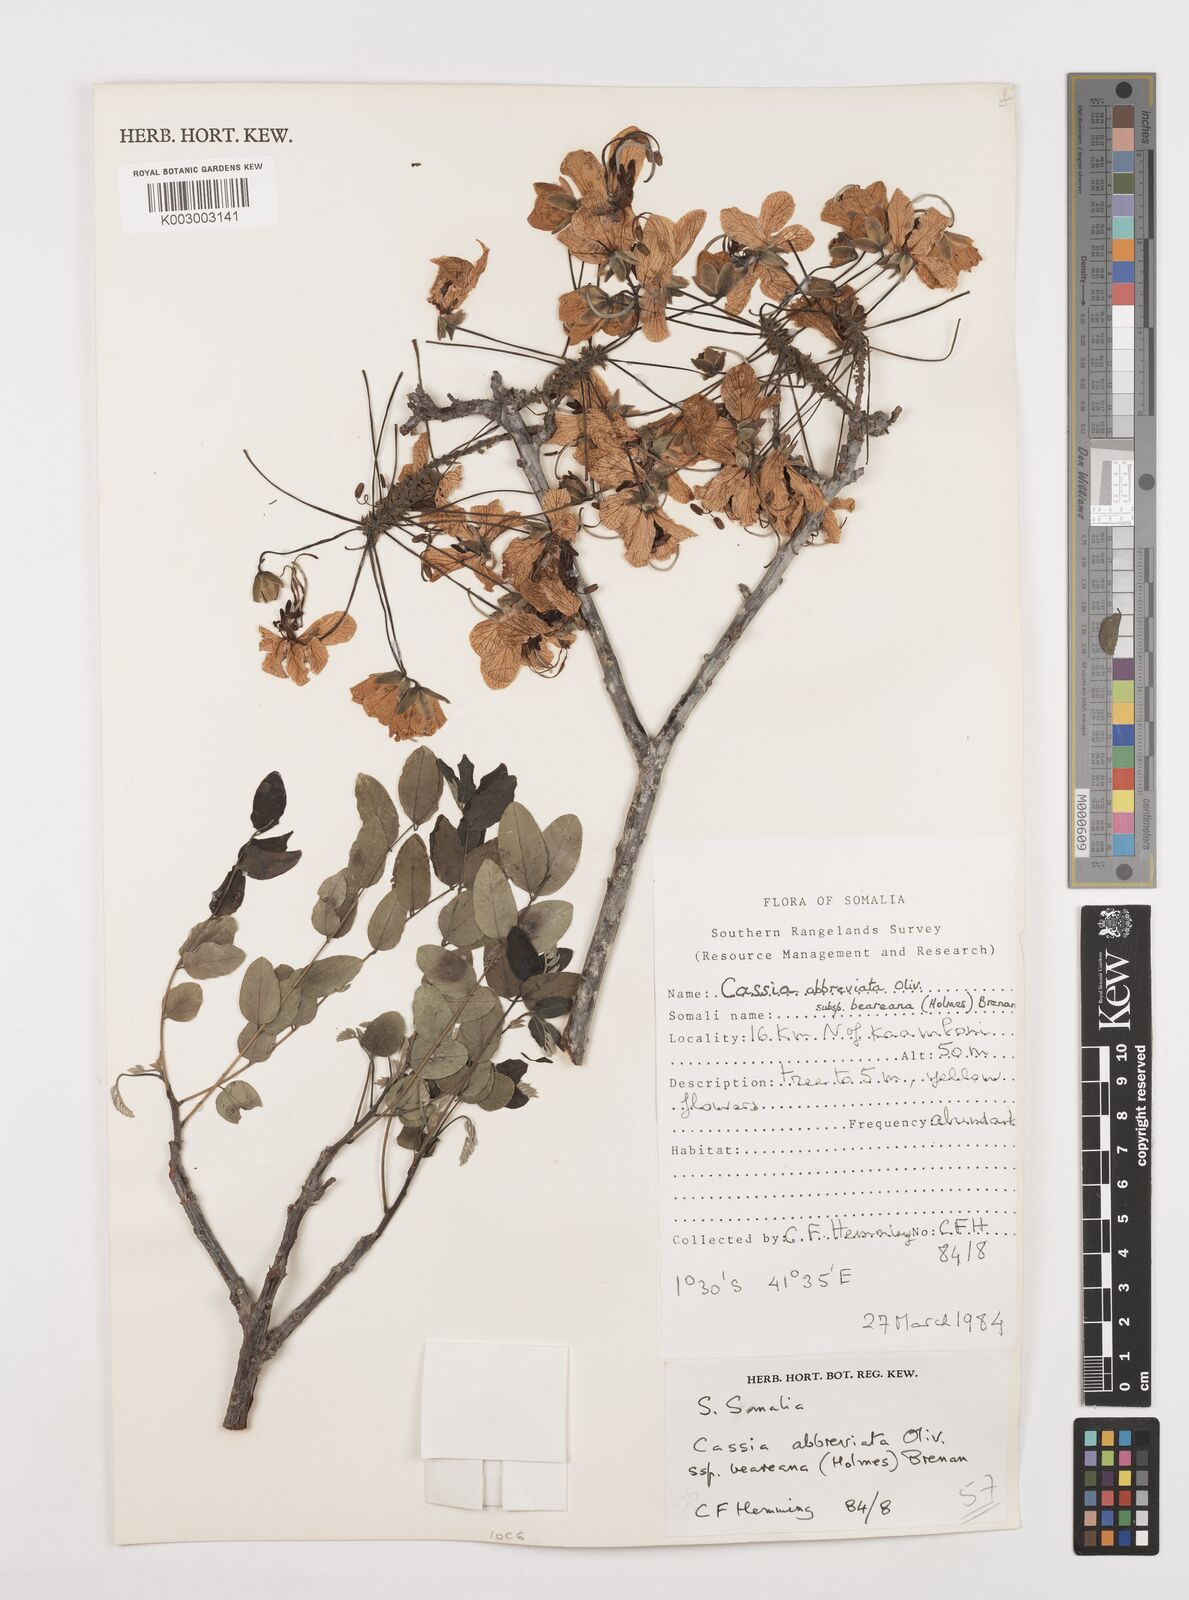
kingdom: Plantae
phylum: Tracheophyta
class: Magnoliopsida
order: Fabales
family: Fabaceae
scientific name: Fabaceae
